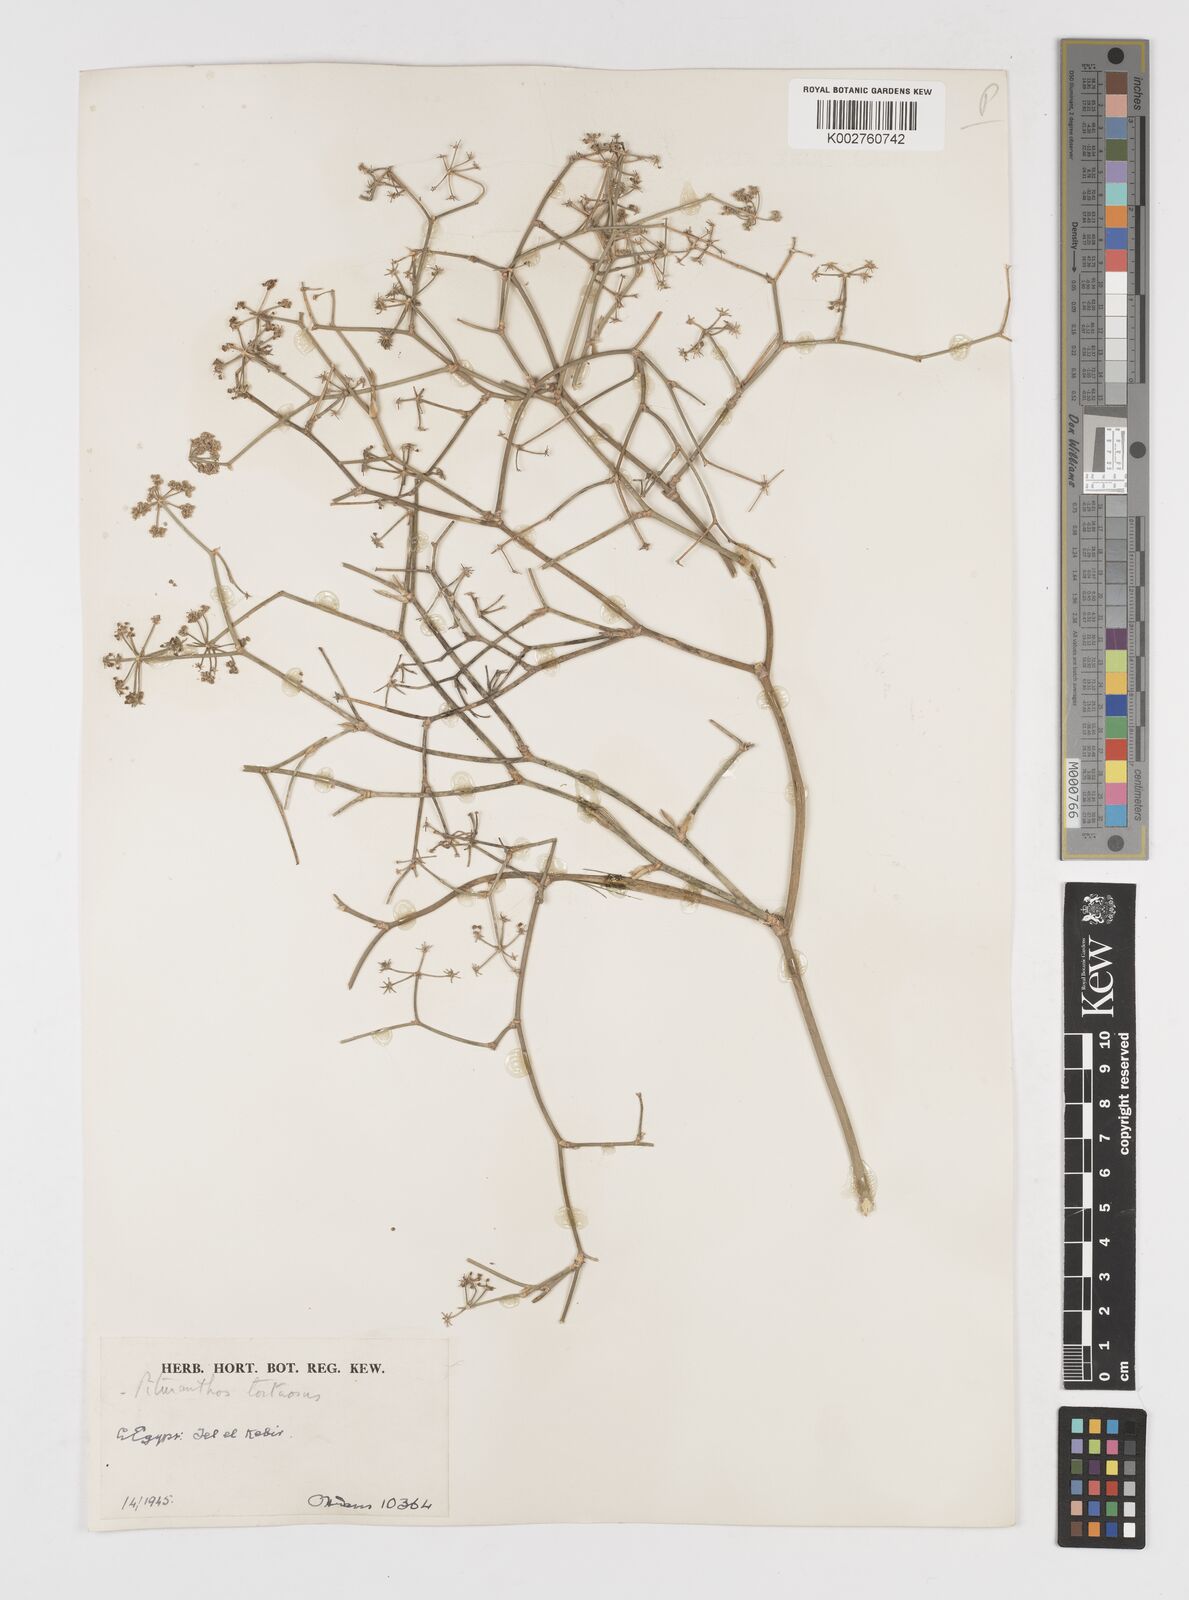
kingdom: Plantae
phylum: Tracheophyta
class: Magnoliopsida
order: Apiales
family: Apiaceae
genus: Deverra
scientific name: Deverra tortuosa
